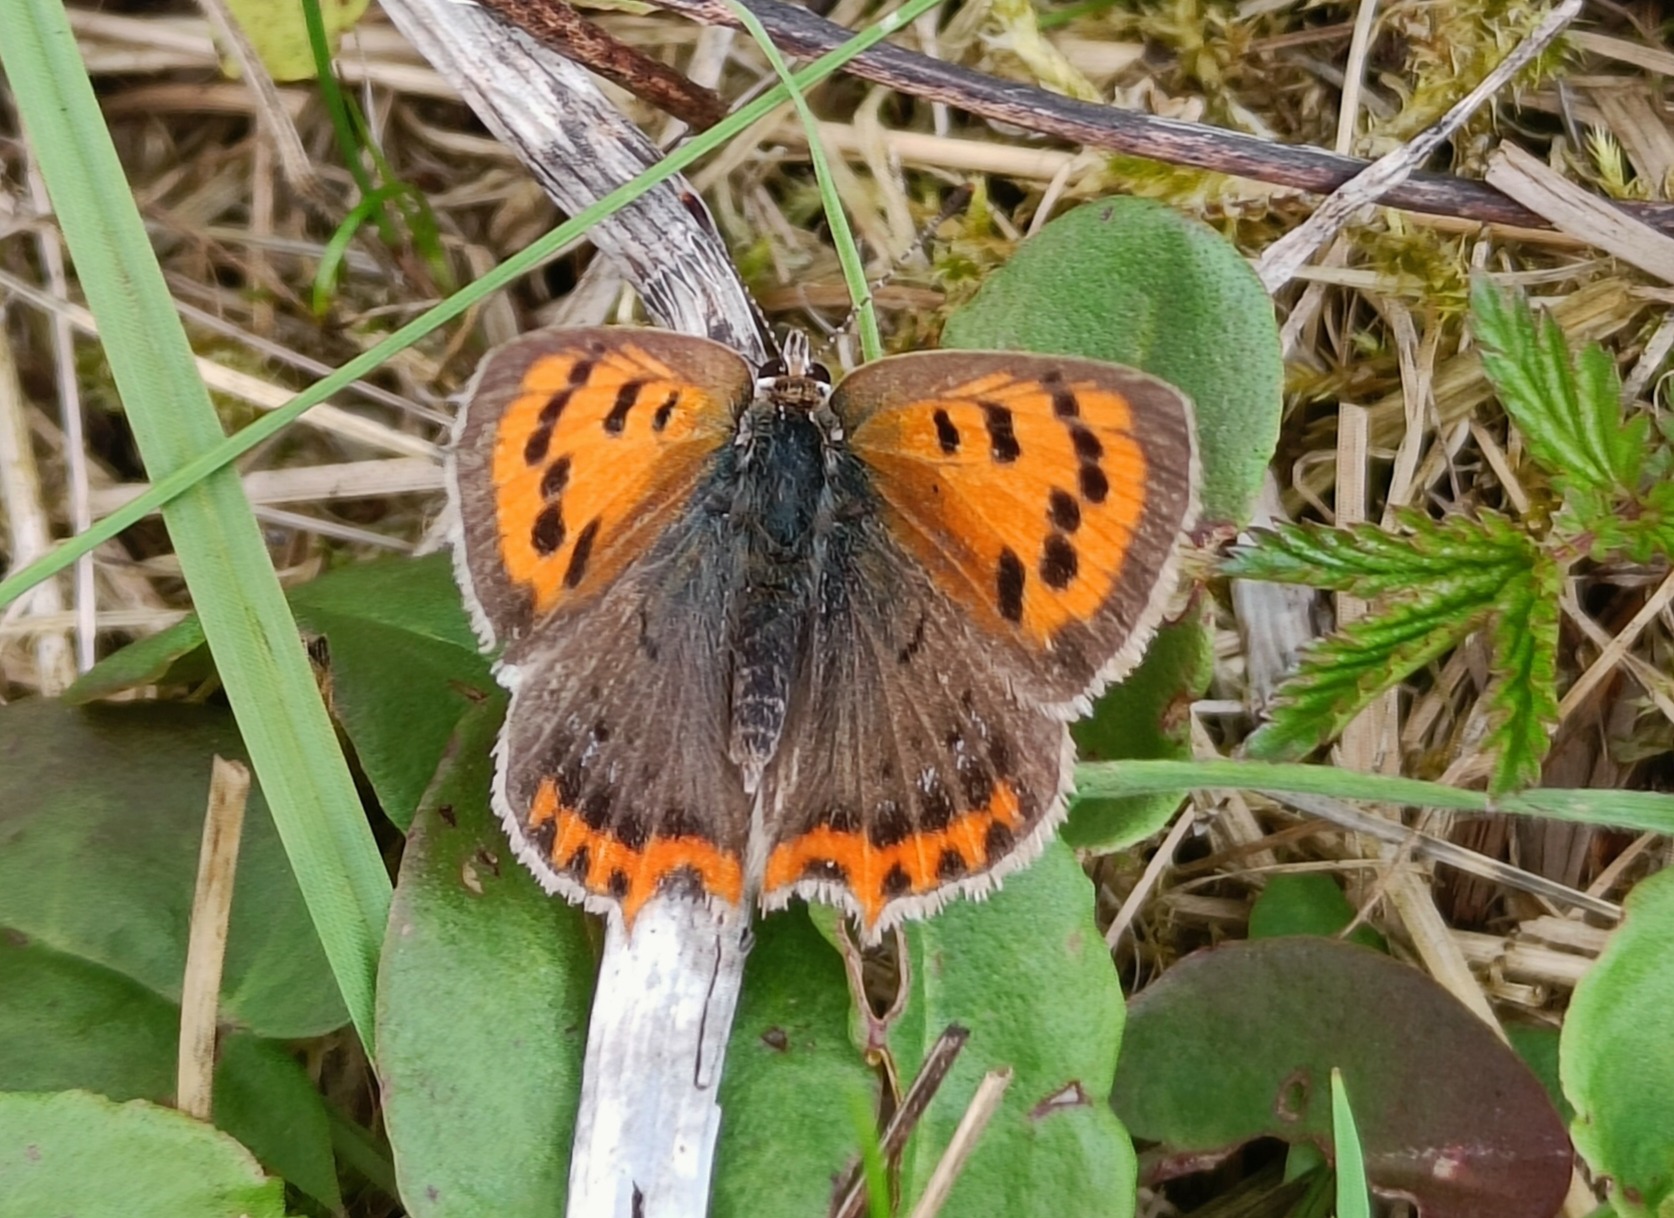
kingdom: Animalia
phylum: Arthropoda
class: Insecta
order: Lepidoptera
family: Lycaenidae
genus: Lycaena
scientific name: Lycaena phlaeas
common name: Lille ildfugl
